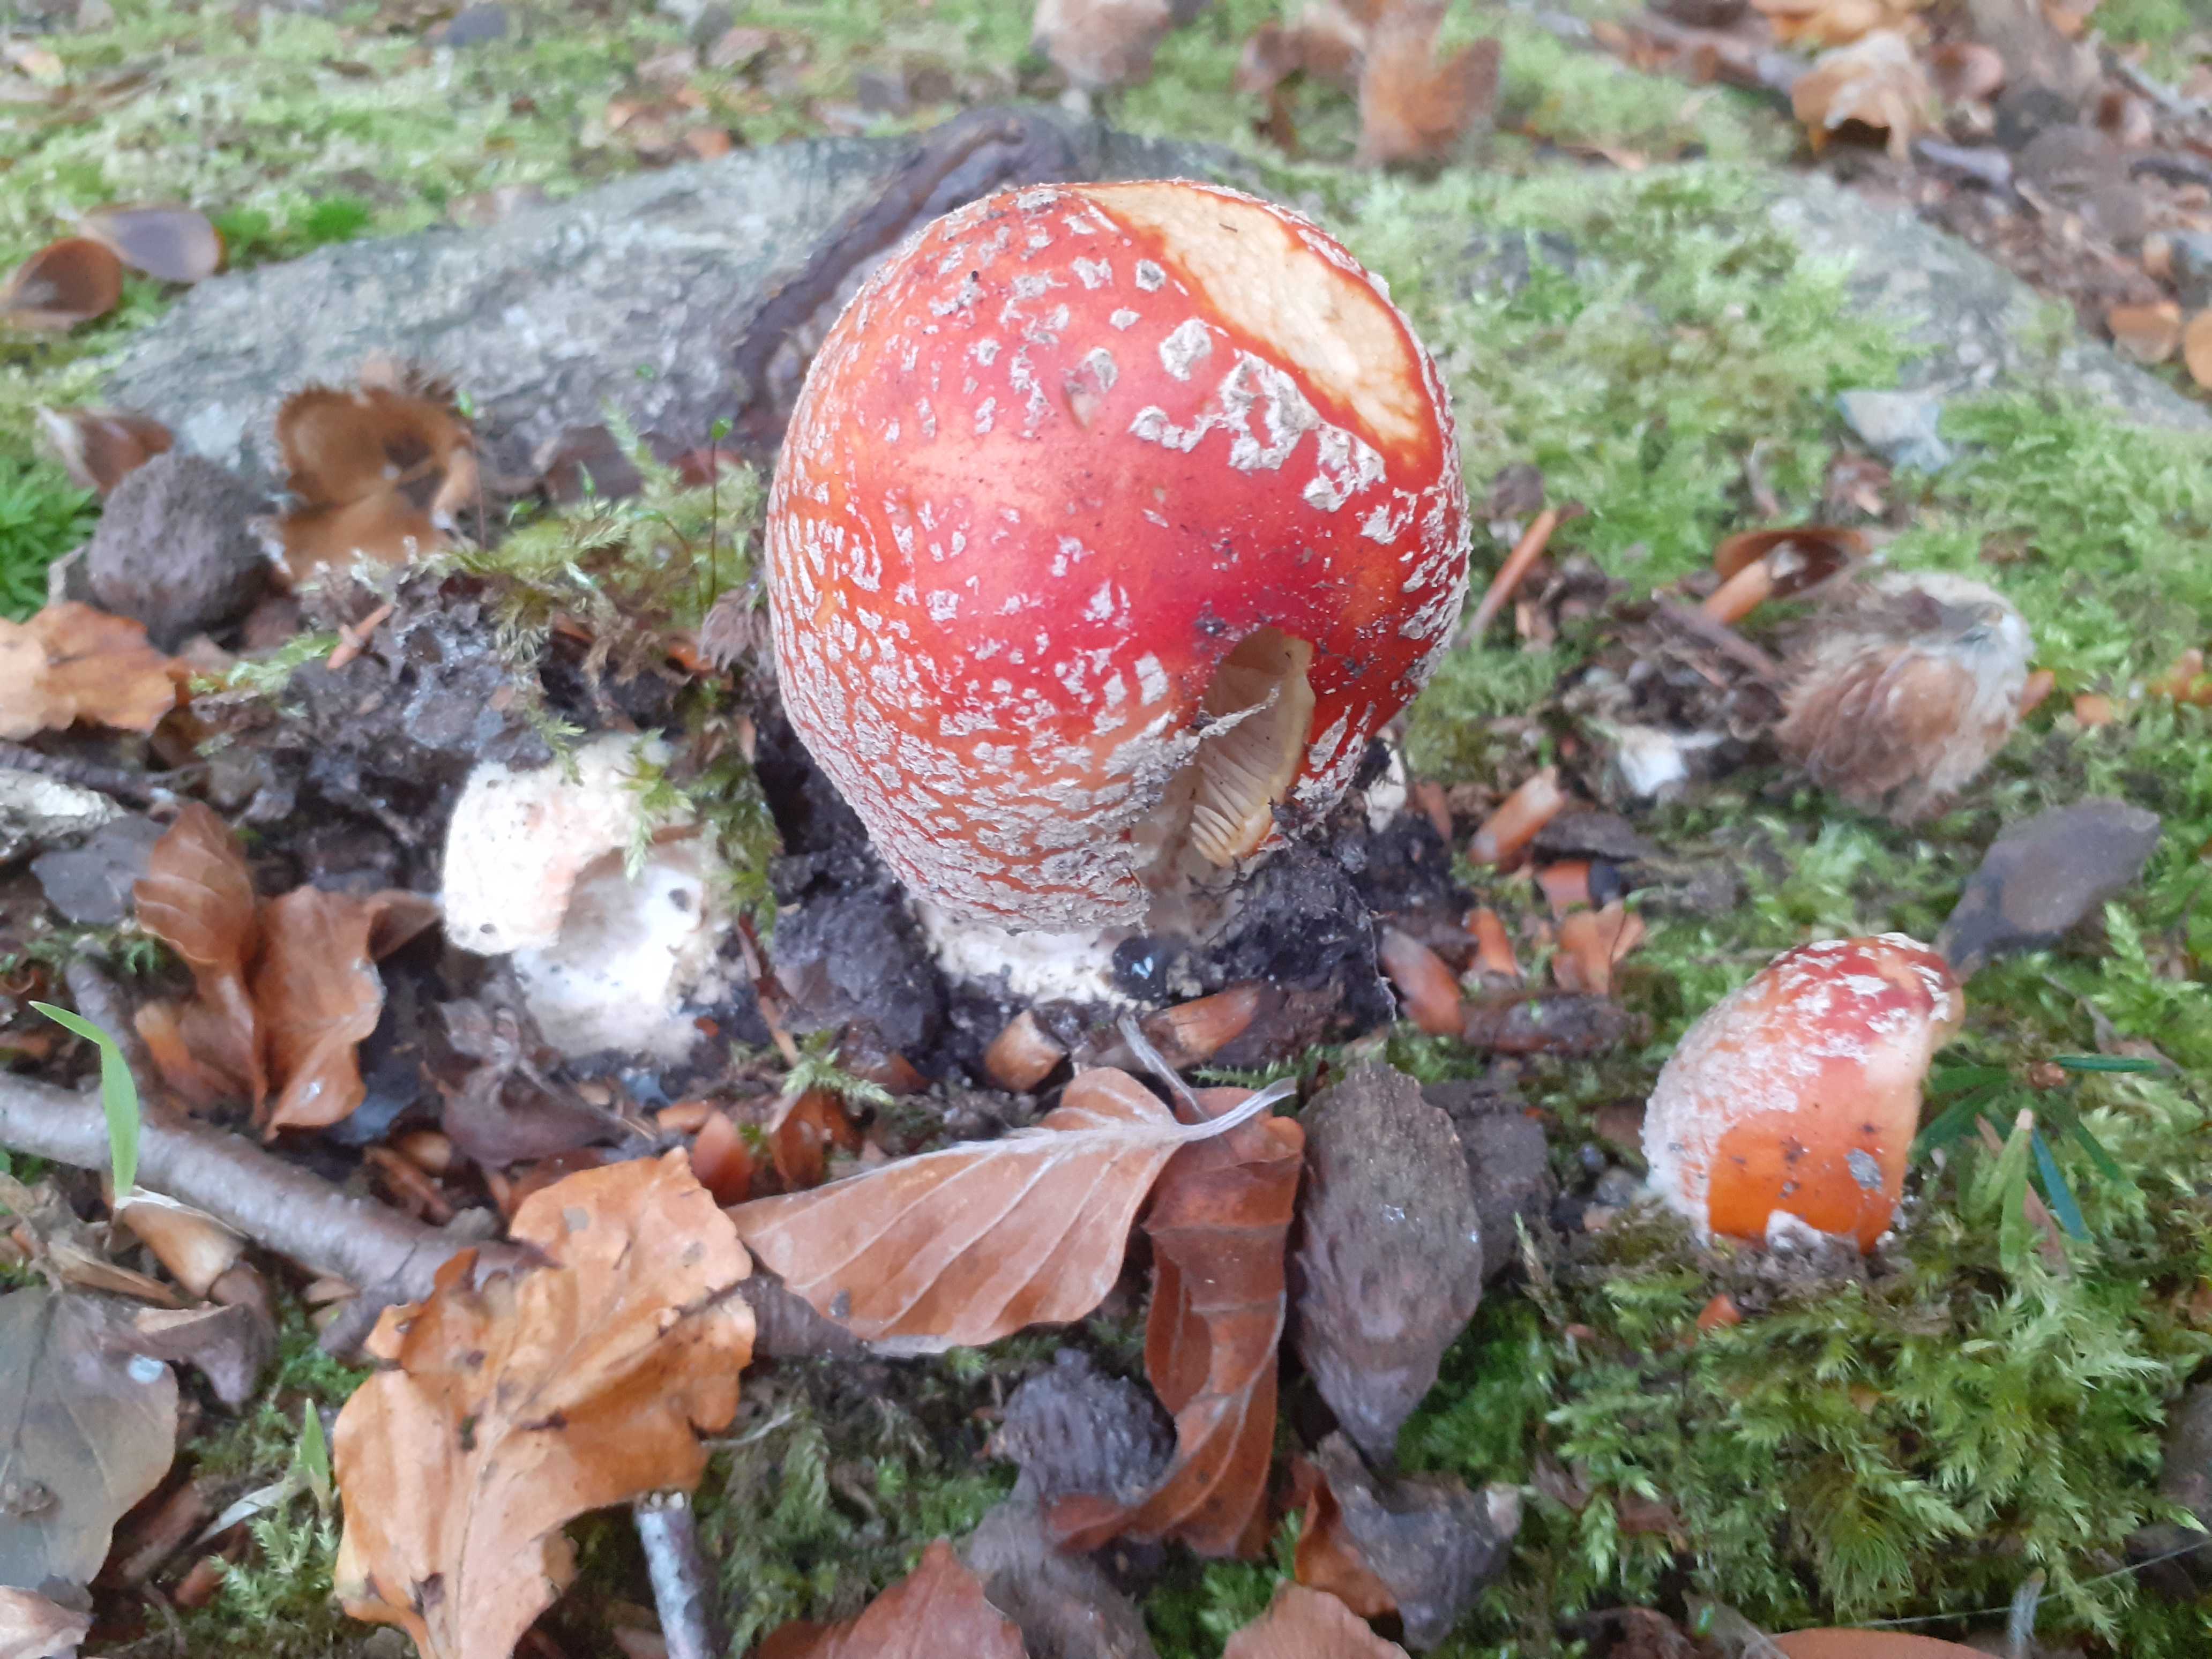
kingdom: Fungi
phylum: Basidiomycota
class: Agaricomycetes
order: Agaricales
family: Amanitaceae
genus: Amanita
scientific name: Amanita muscaria
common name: rød fluesvamp
